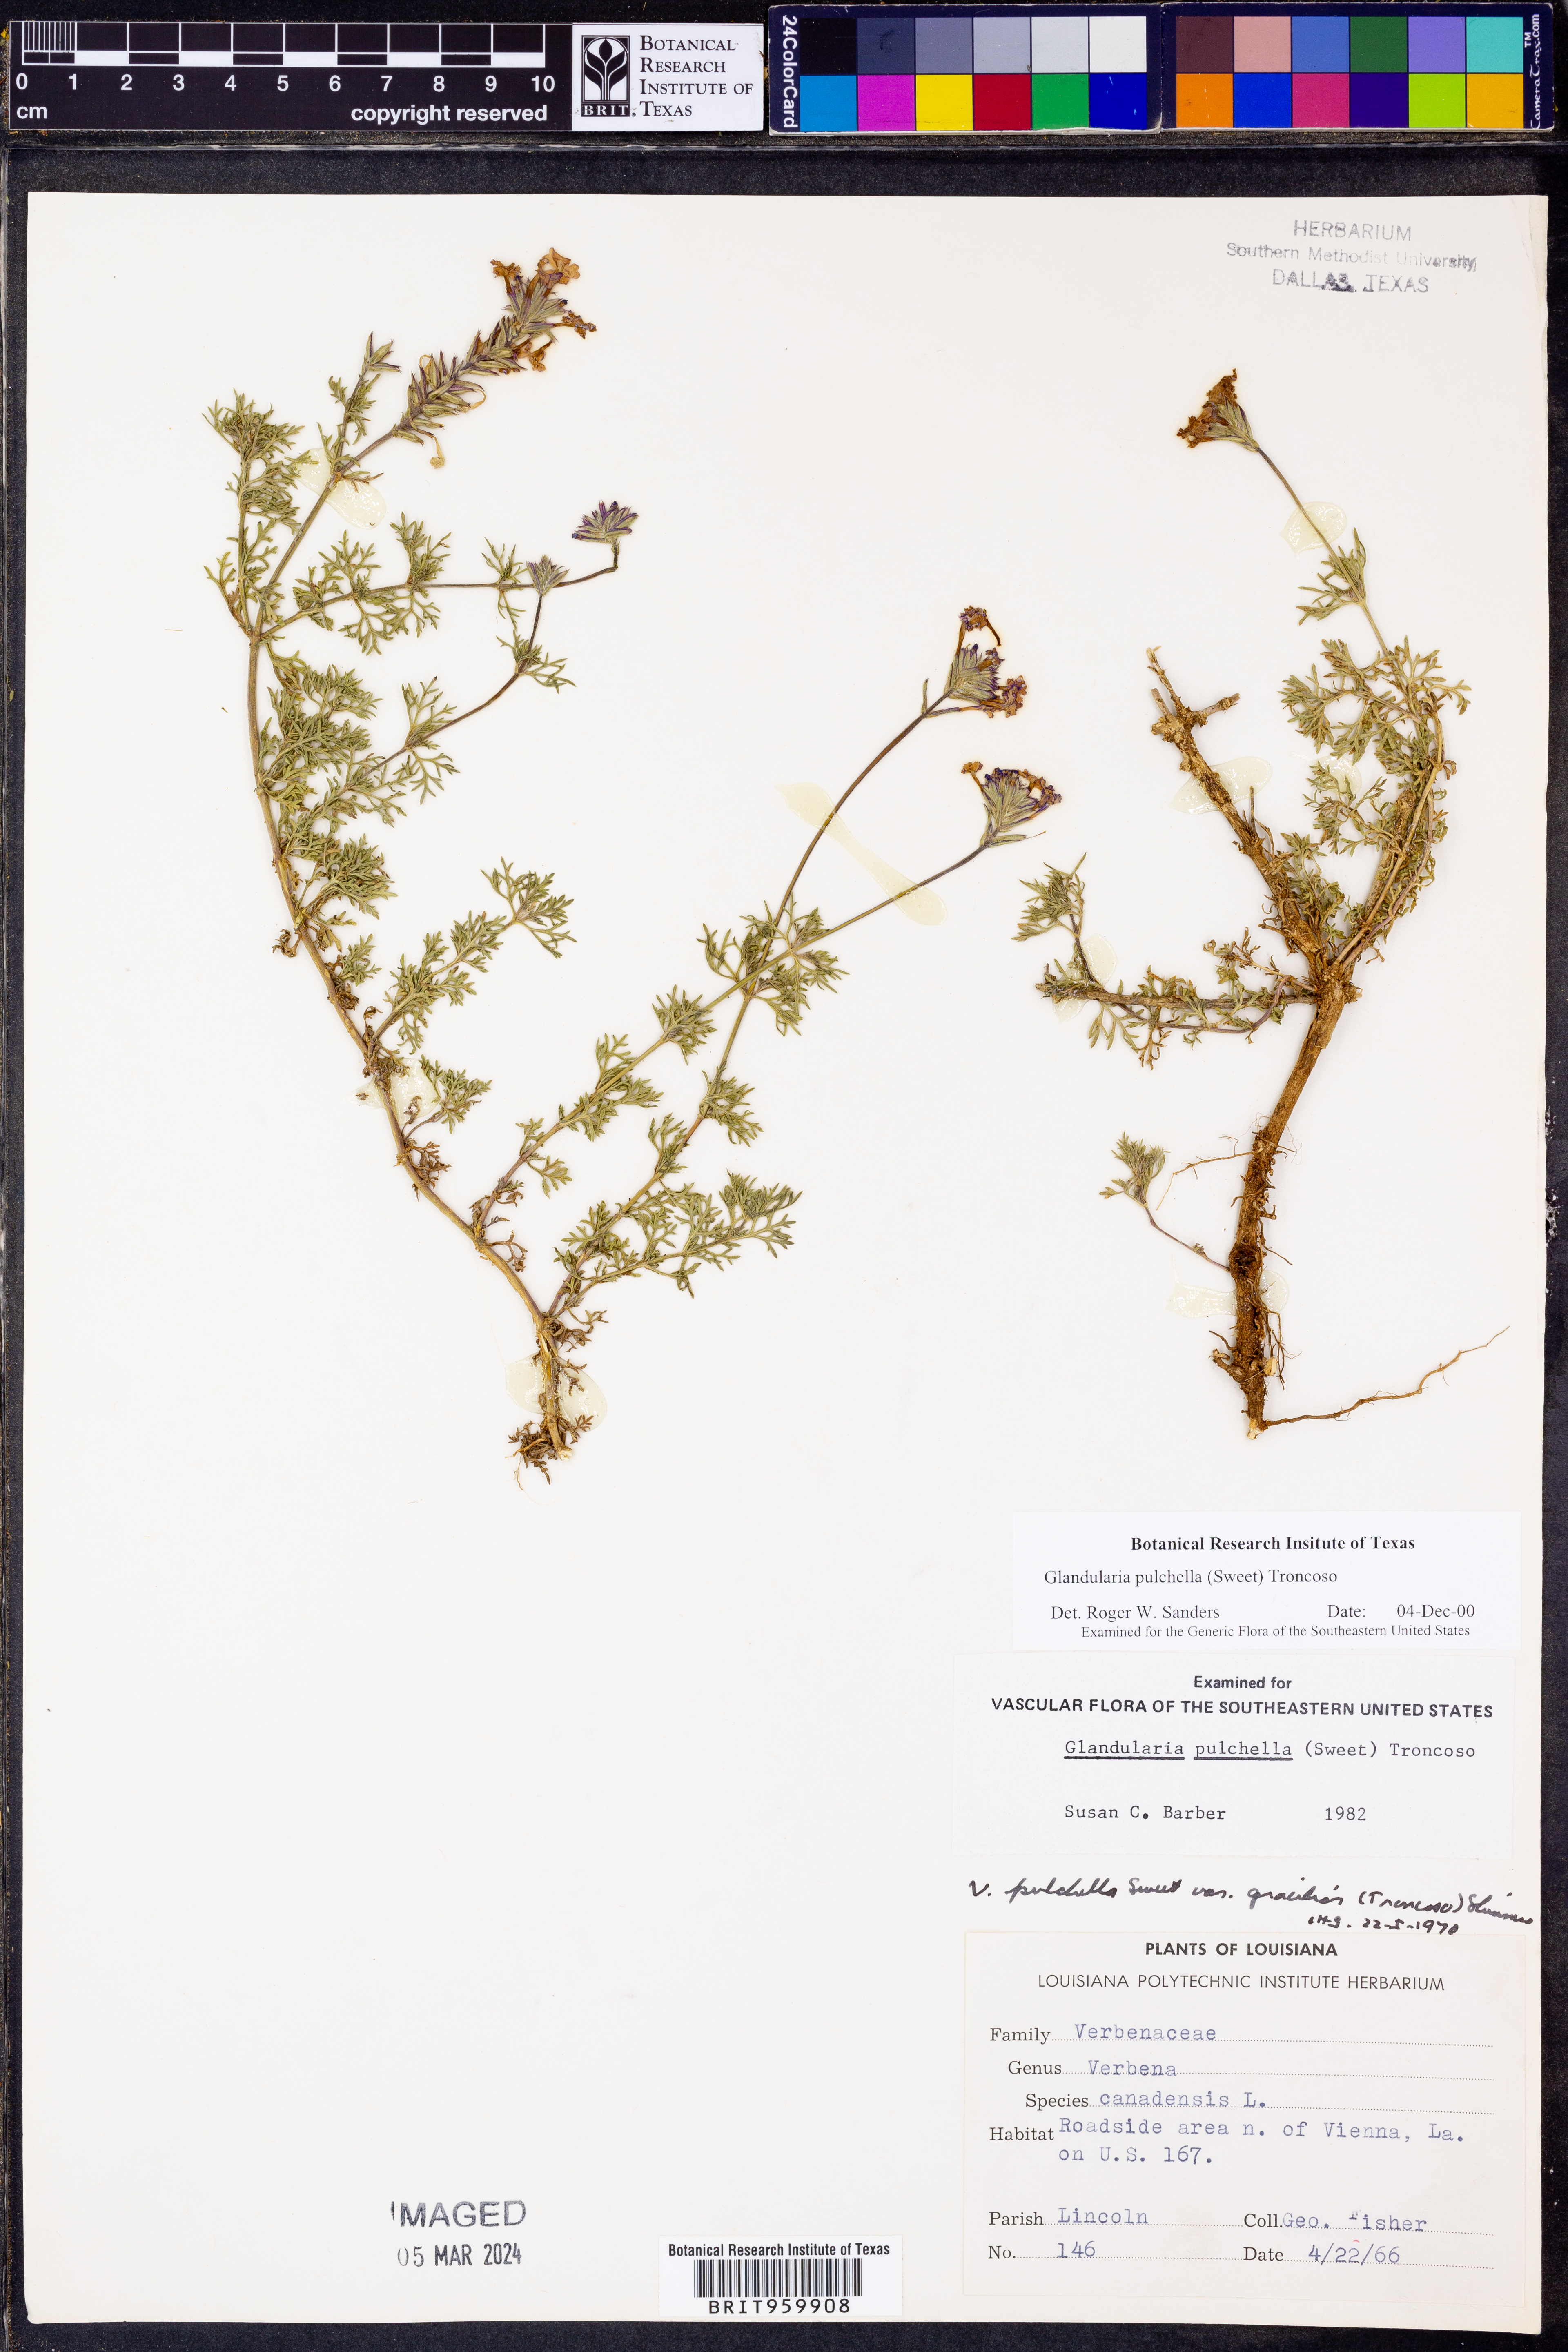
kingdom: Plantae
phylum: Tracheophyta
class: Magnoliopsida
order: Lamiales
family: Verbenaceae
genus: Verbena
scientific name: Verbena tenera
